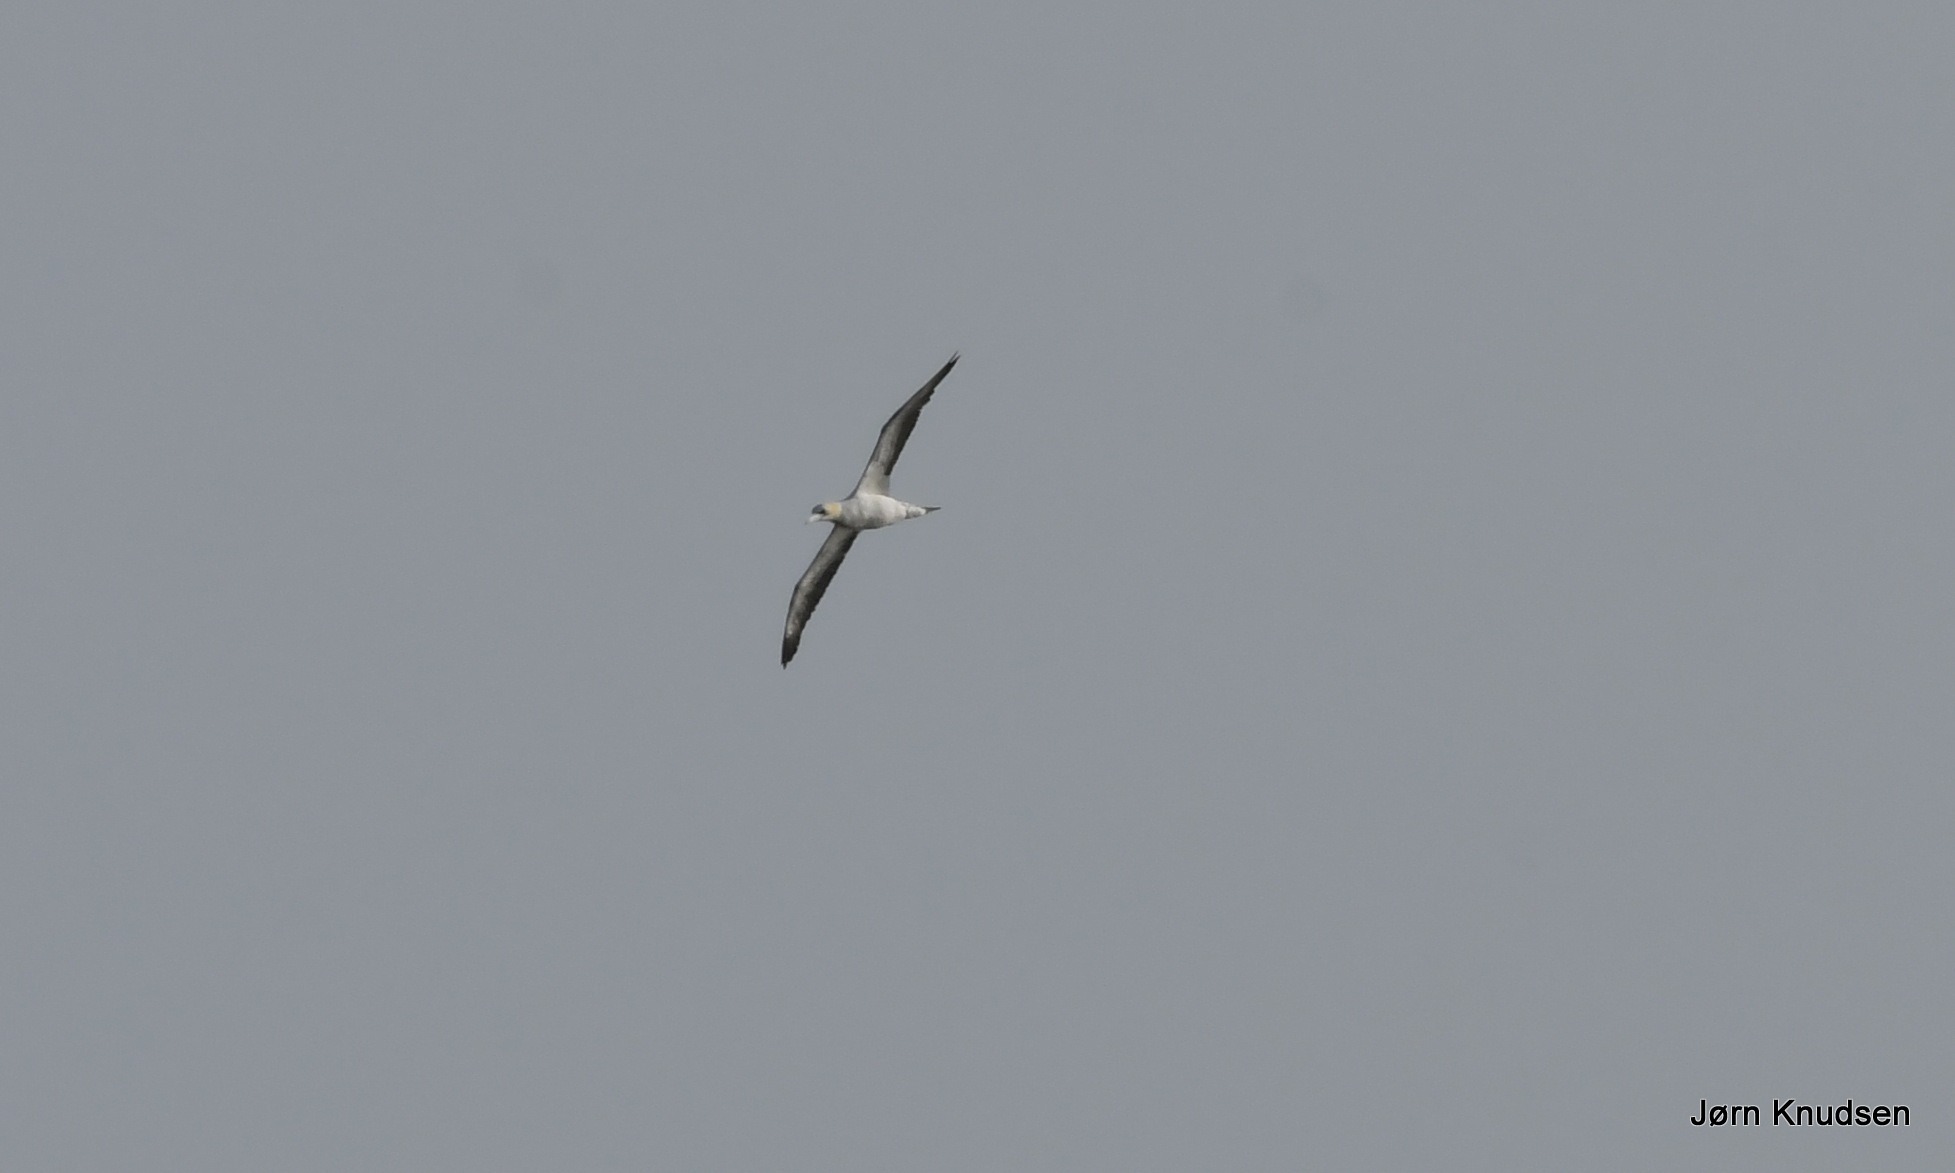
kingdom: Animalia
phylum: Chordata
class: Aves
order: Suliformes
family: Sulidae
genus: Morus
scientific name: Morus bassanus
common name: Sule
